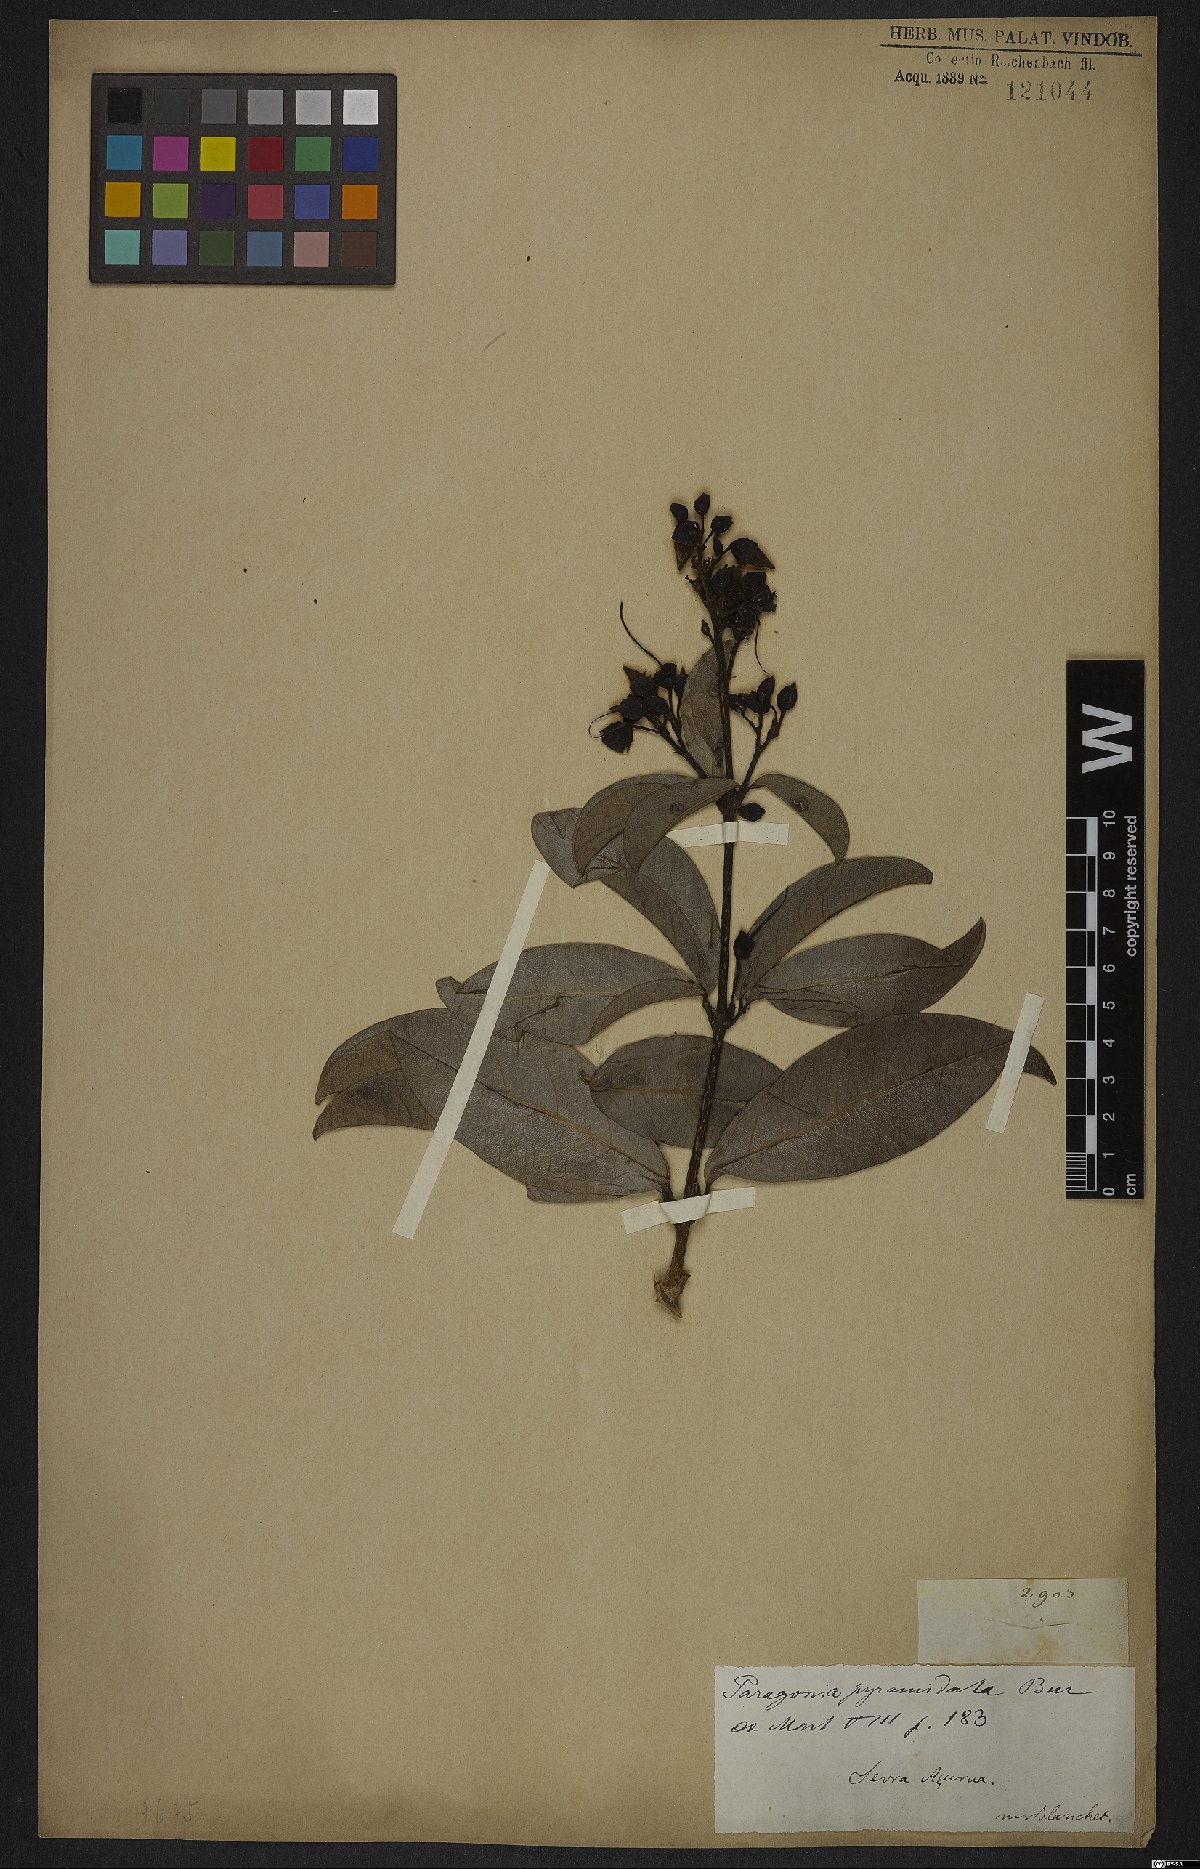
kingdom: Plantae
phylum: Tracheophyta
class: Magnoliopsida
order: Lamiales
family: Bignoniaceae
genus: Tanaecium
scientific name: Tanaecium pyramidatum
